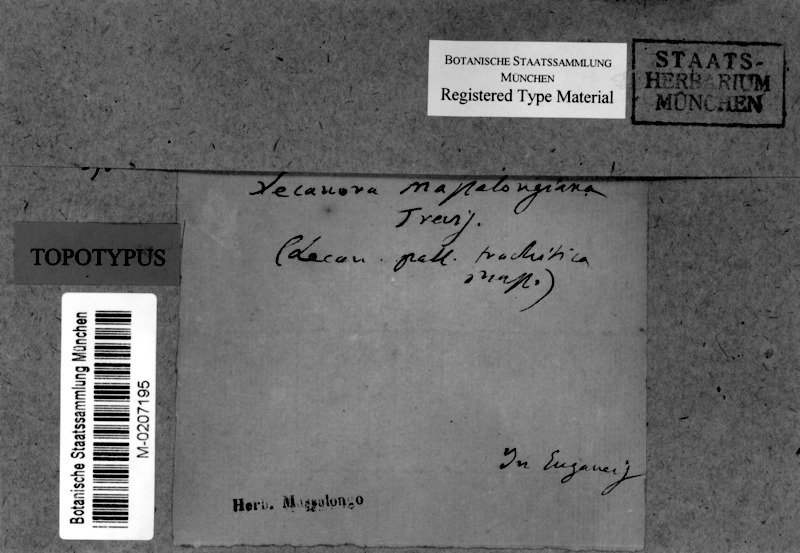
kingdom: Fungi
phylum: Ascomycota
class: Lecanoromycetes
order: Lecanorales
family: Lecanoraceae
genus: Lecanora
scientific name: Lecanora subcarnea
